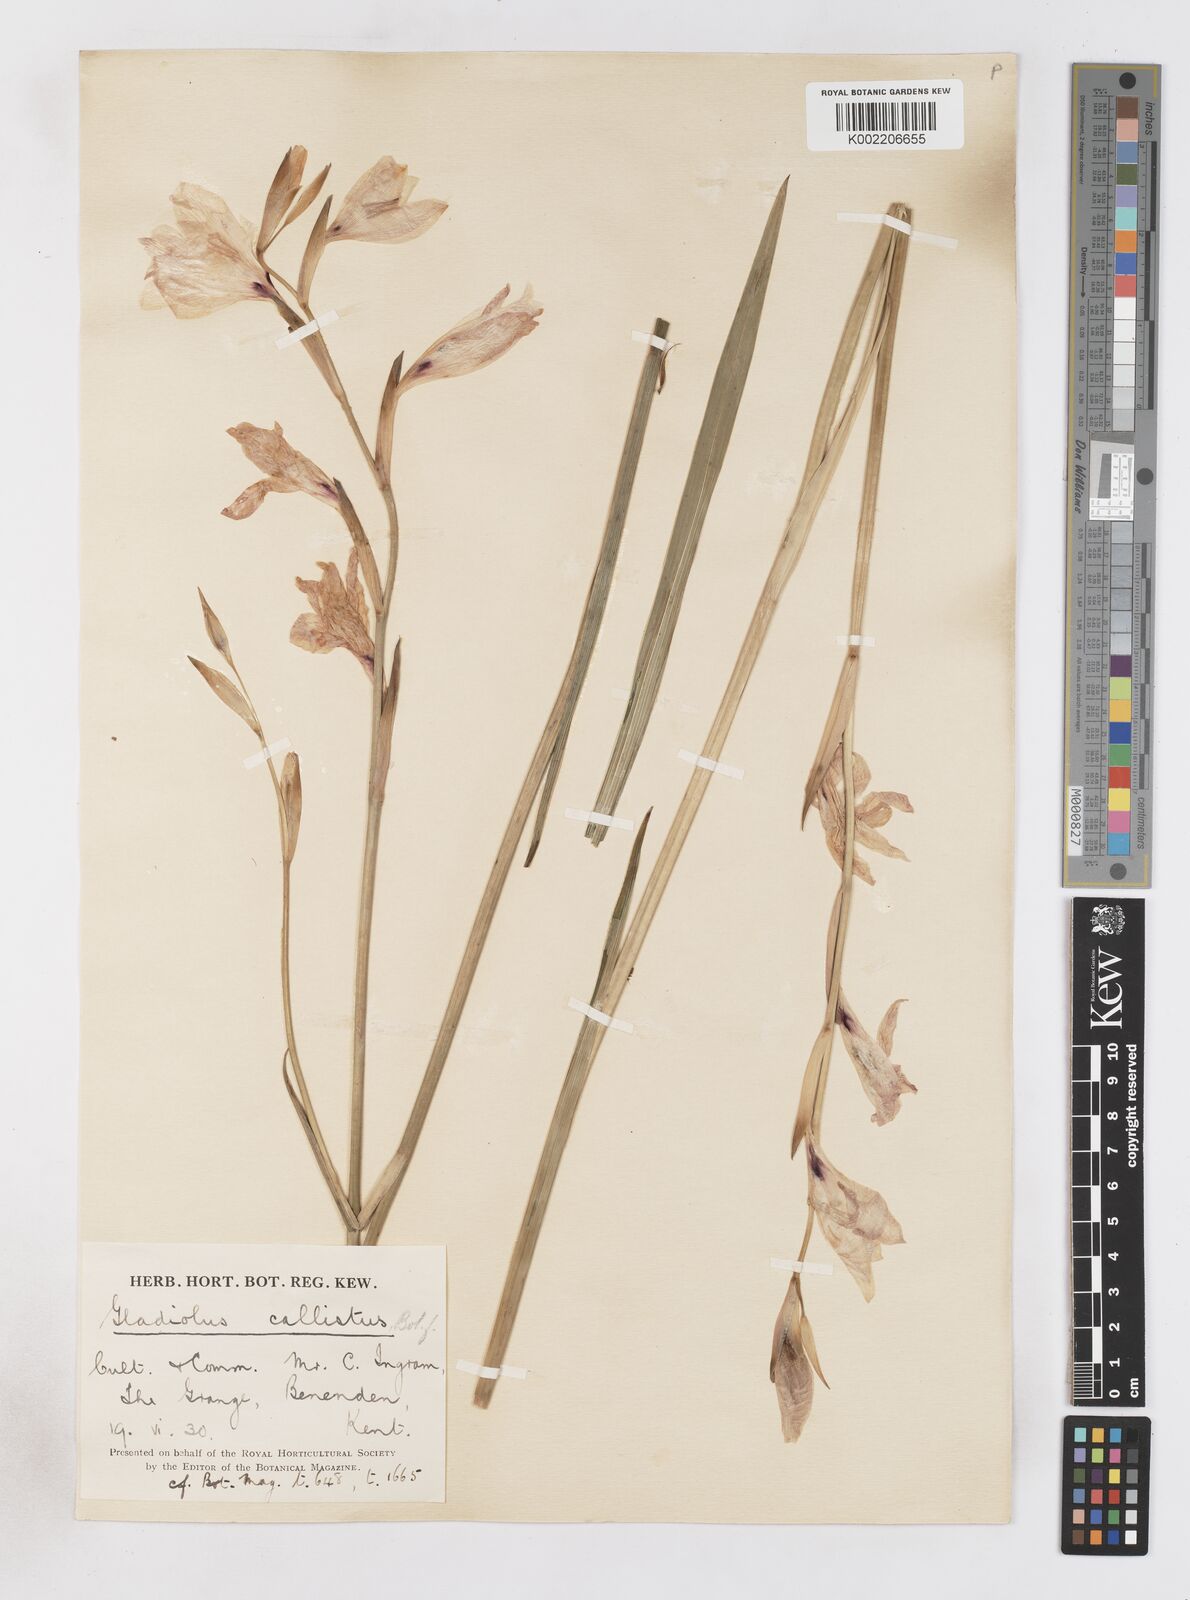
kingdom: Plantae
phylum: Tracheophyta
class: Liliopsida
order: Asparagales
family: Iridaceae
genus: Gladiolus
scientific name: Gladiolus carneus
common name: Painted-lady
